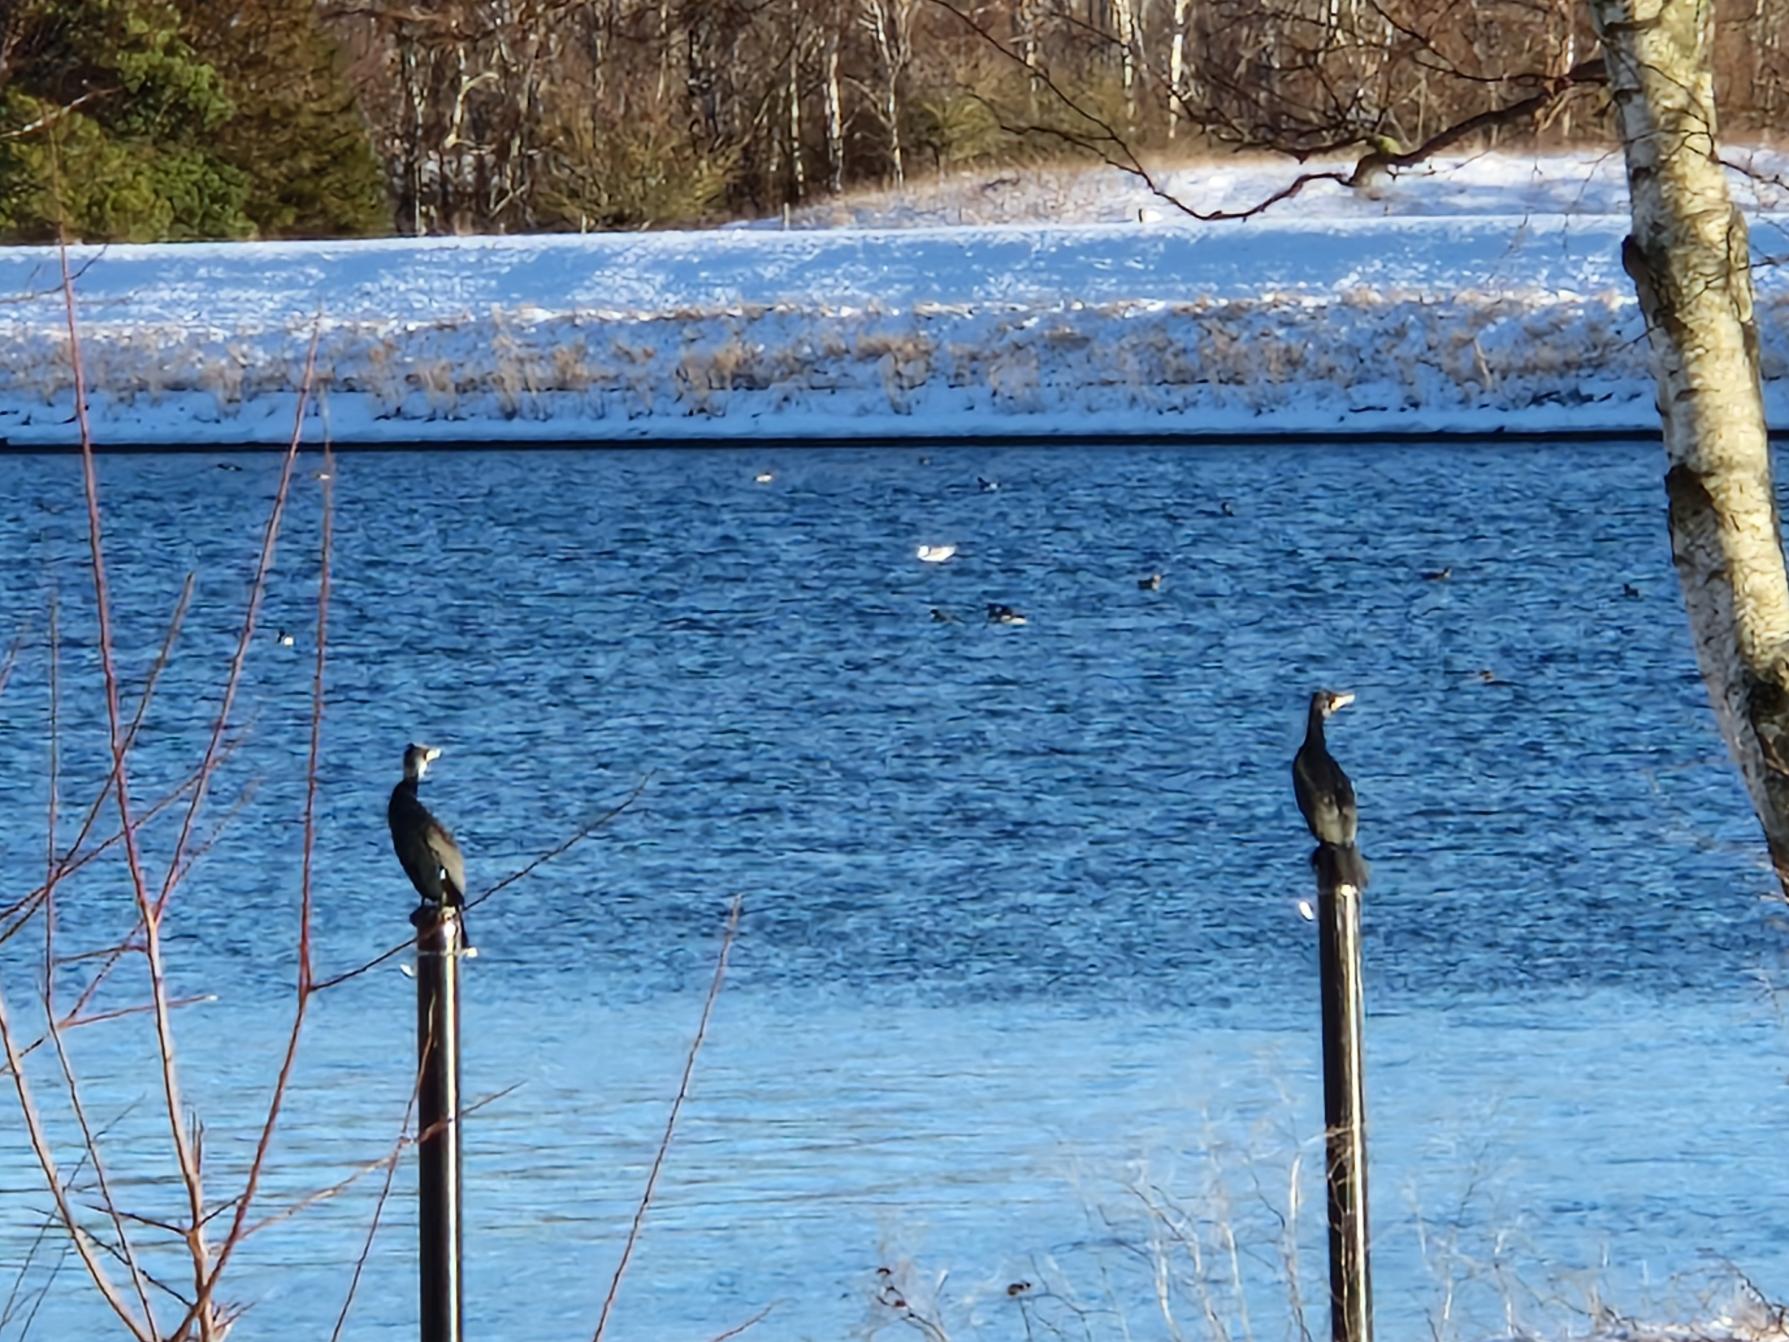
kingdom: Animalia
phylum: Chordata
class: Aves
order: Suliformes
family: Phalacrocoracidae
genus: Phalacrocorax
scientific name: Phalacrocorax carbo
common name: Skarv
